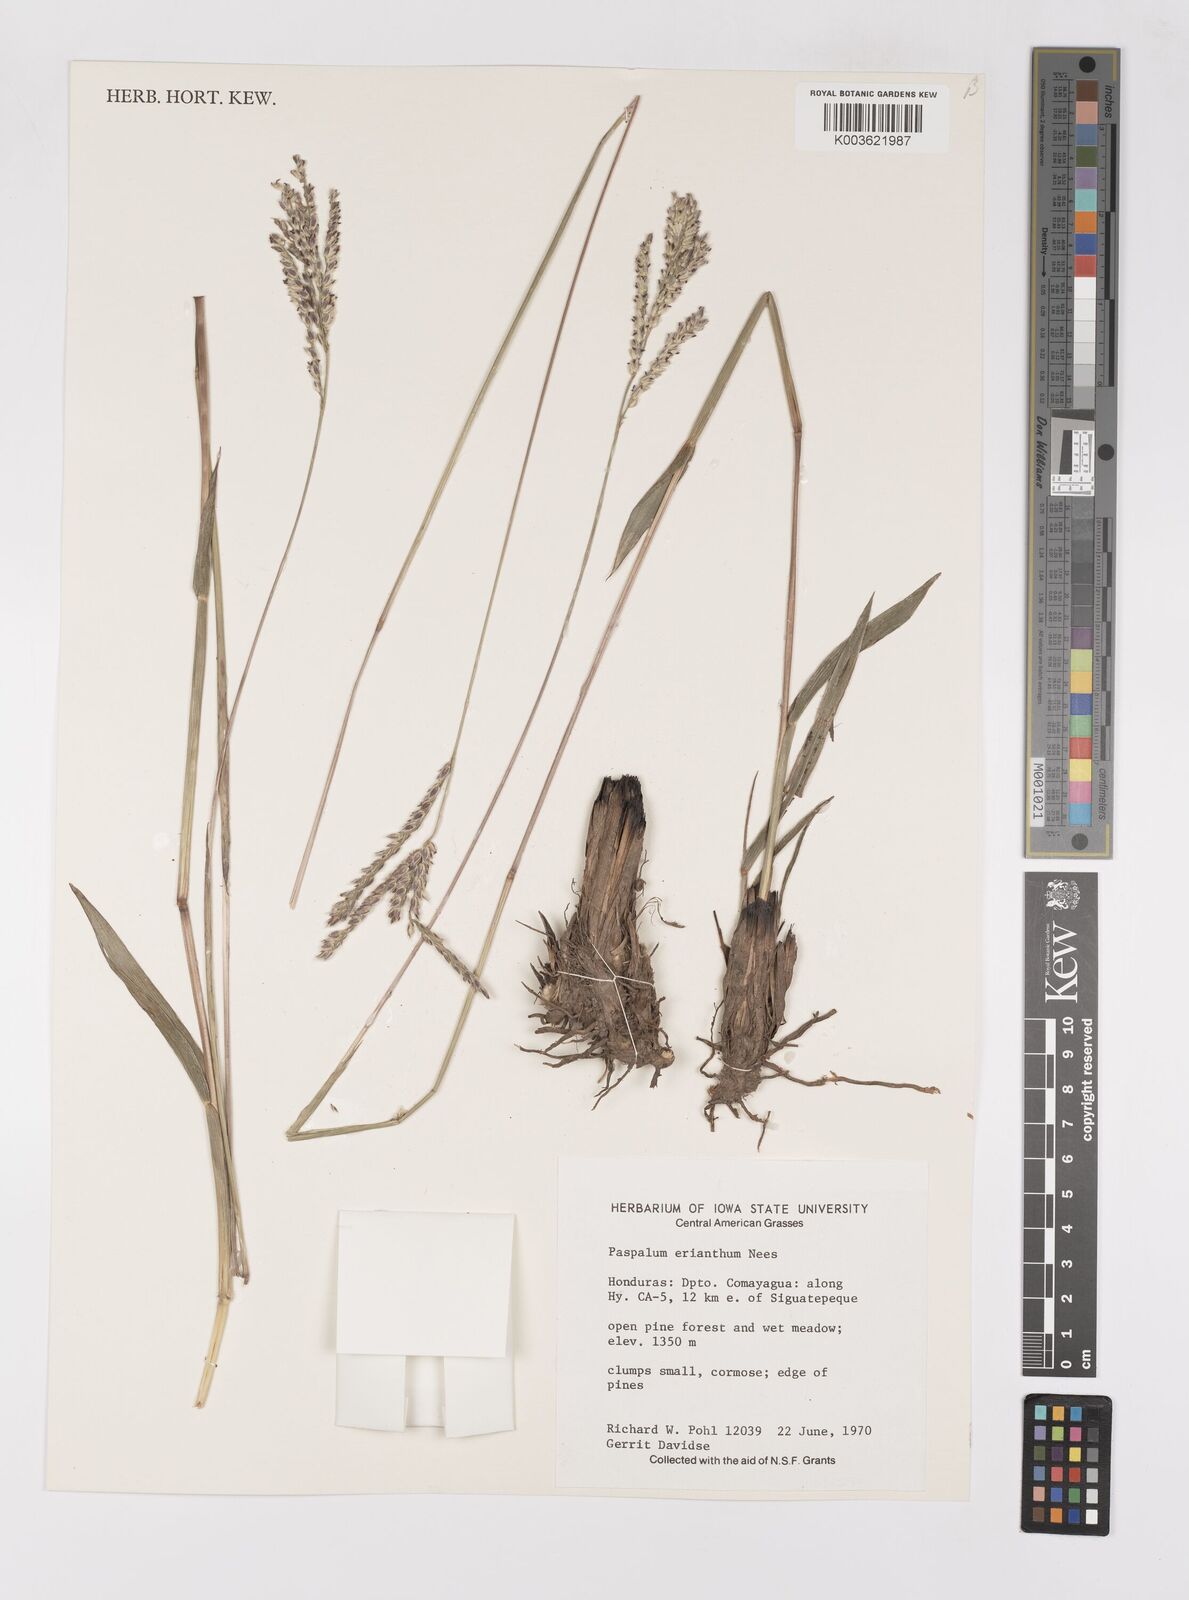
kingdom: Plantae
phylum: Tracheophyta
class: Liliopsida
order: Poales
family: Poaceae
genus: Paspalum
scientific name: Paspalum erianthum
